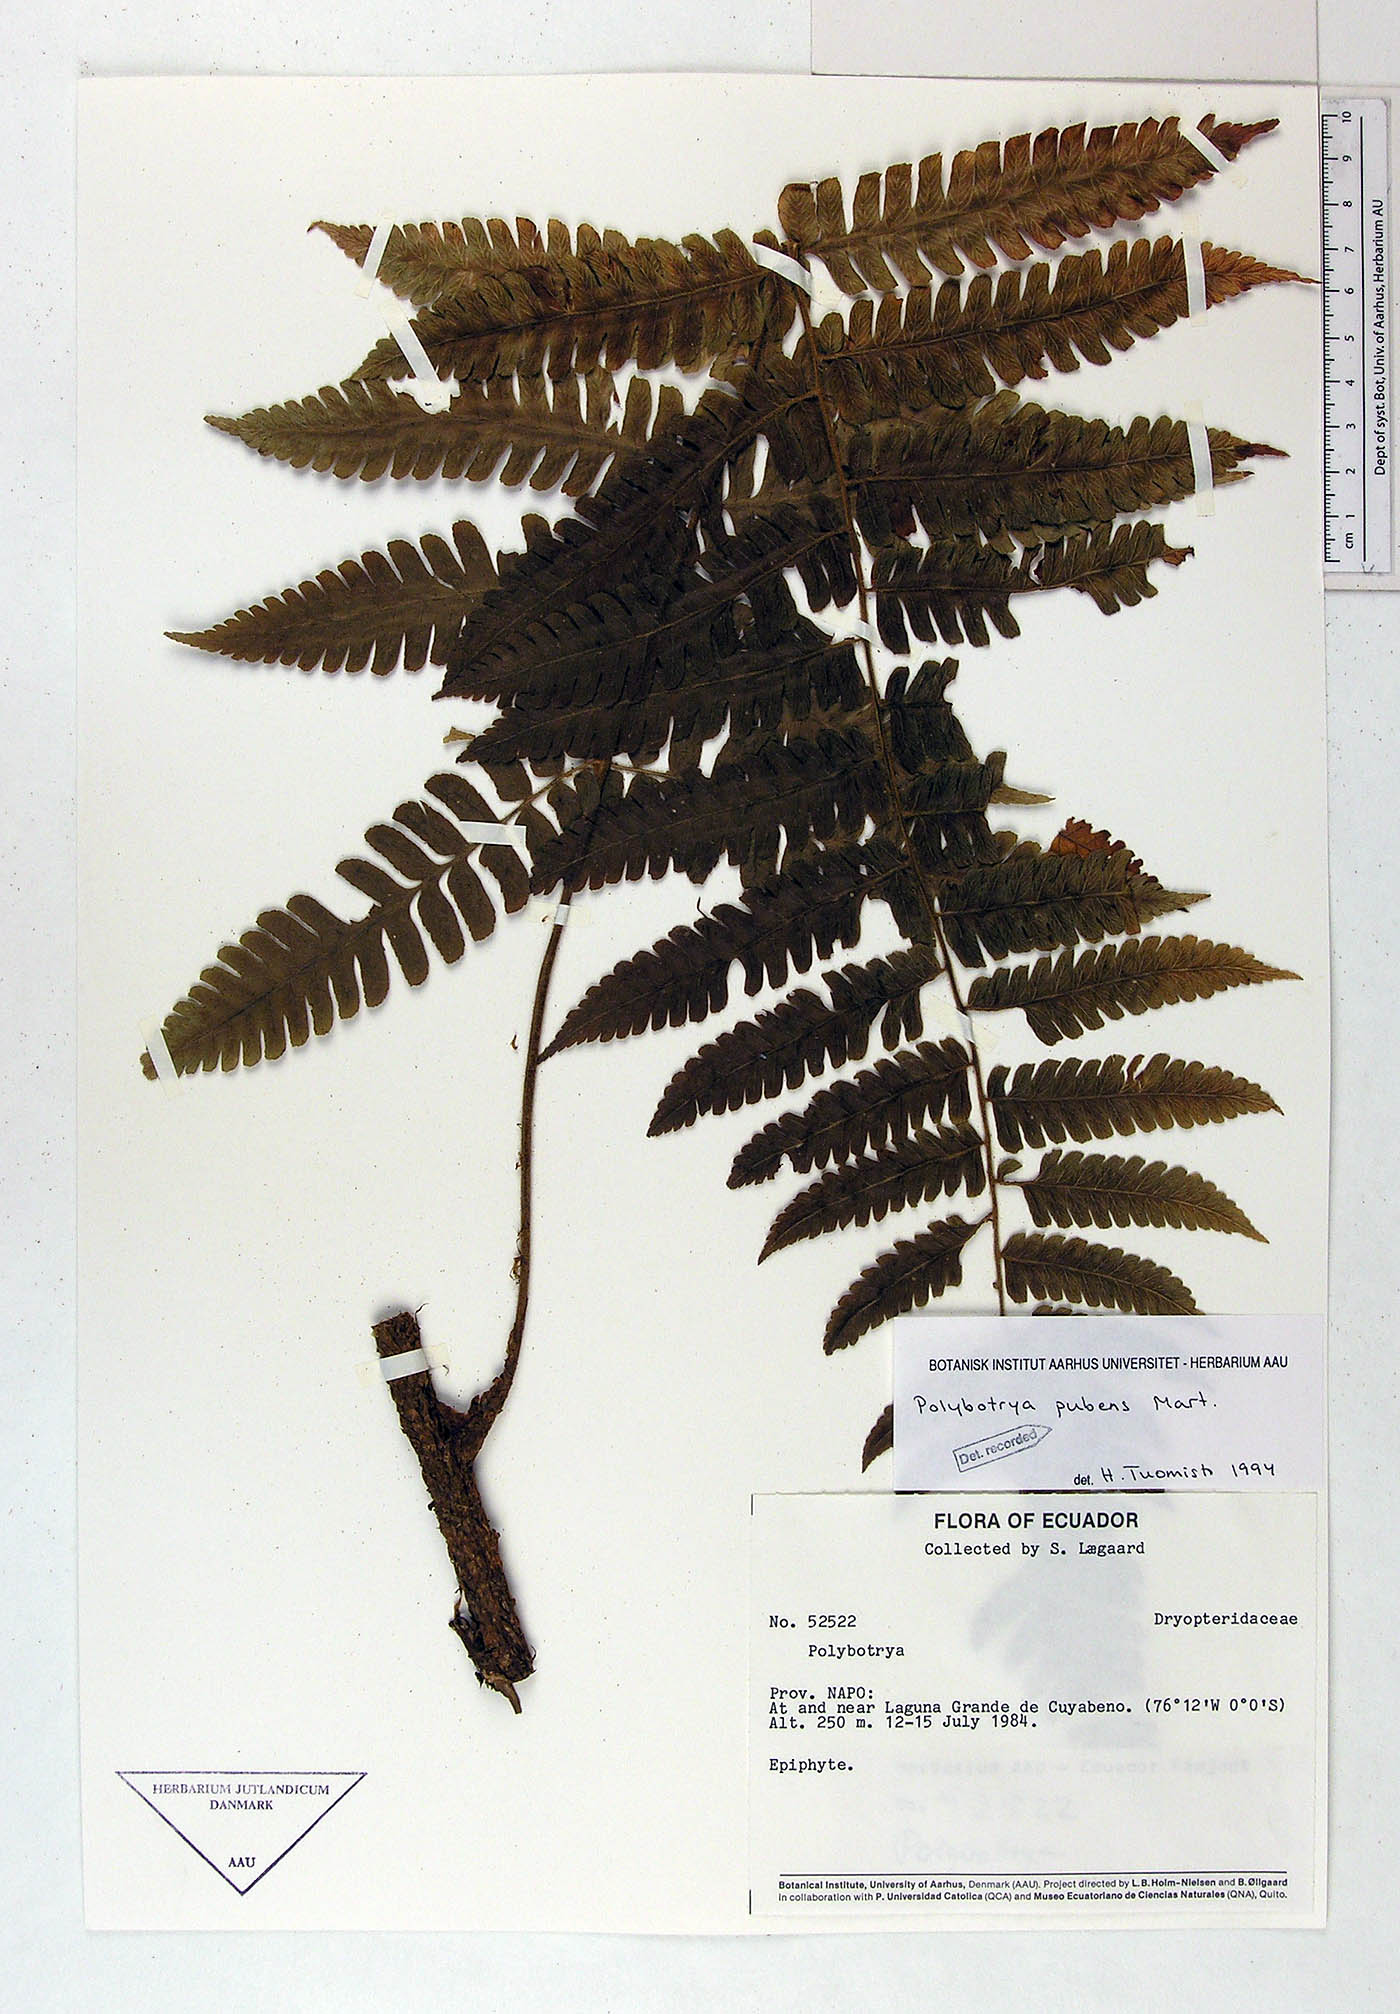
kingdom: Plantae
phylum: Tracheophyta
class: Polypodiopsida
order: Polypodiales
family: Dryopteridaceae
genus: Polybotrya
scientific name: Polybotrya pubens
